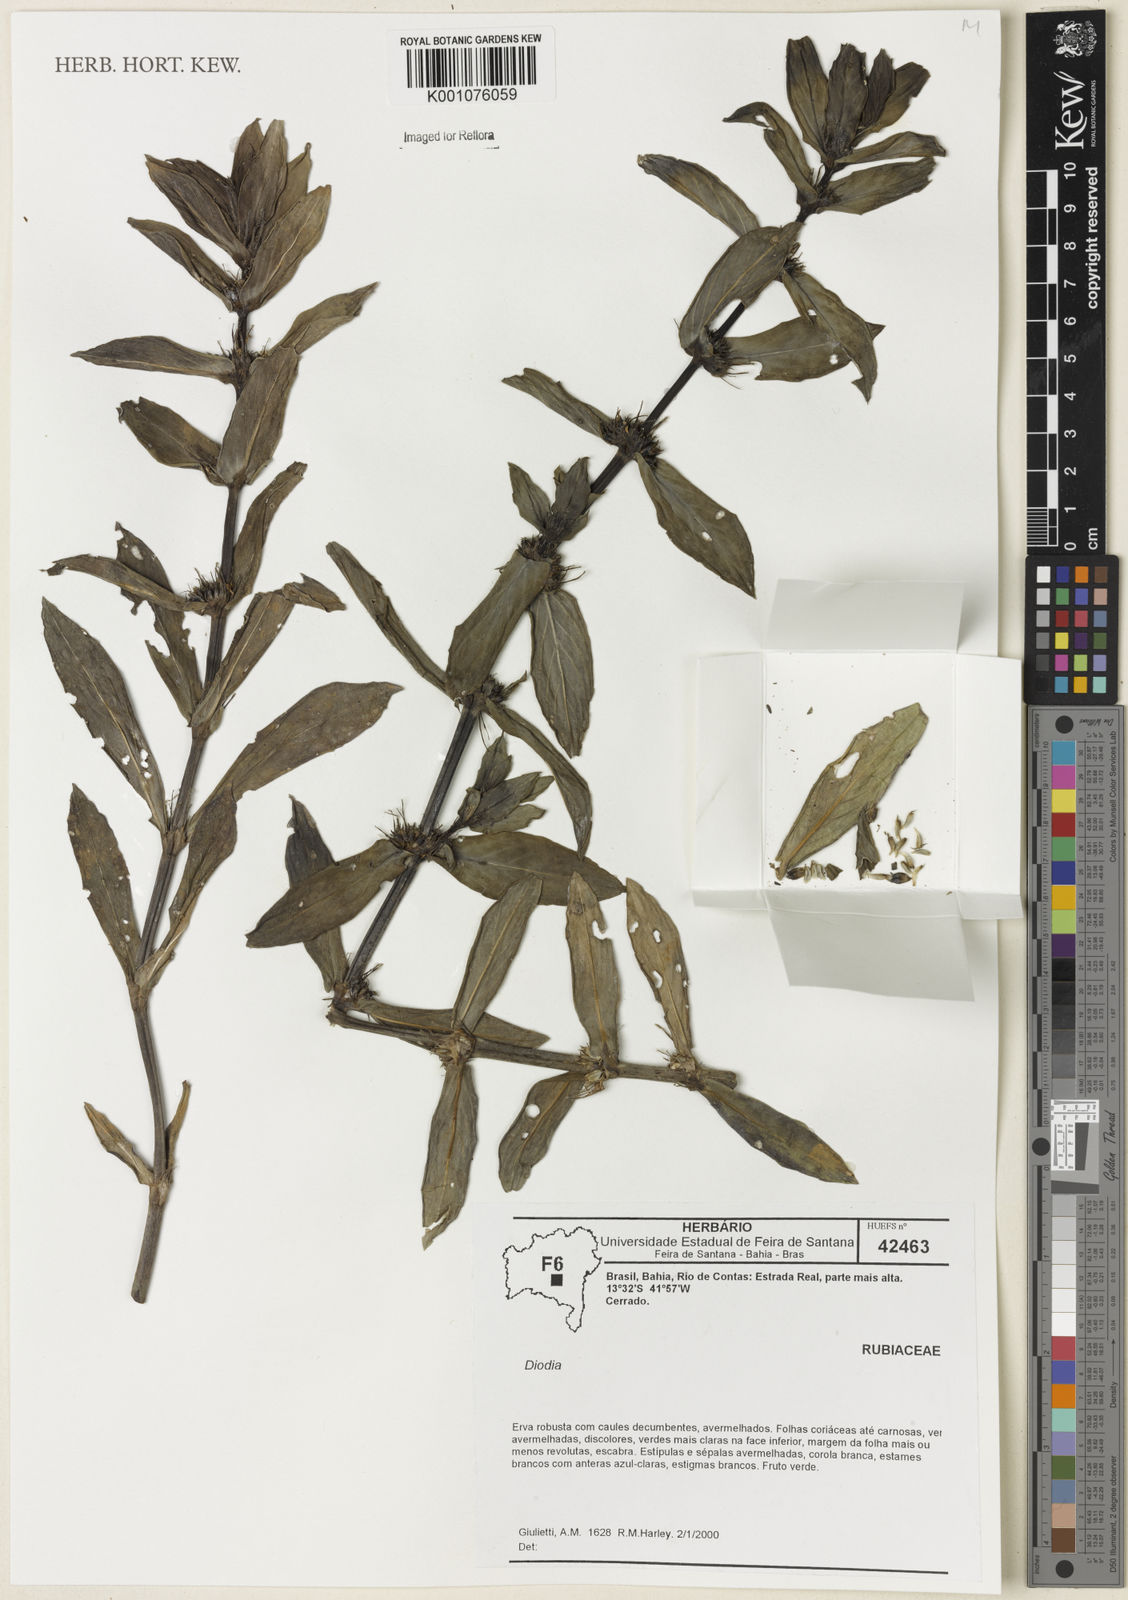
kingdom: Plantae
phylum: Tracheophyta
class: Magnoliopsida
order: Gentianales
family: Rubiaceae
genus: Diodia
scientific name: Diodia
